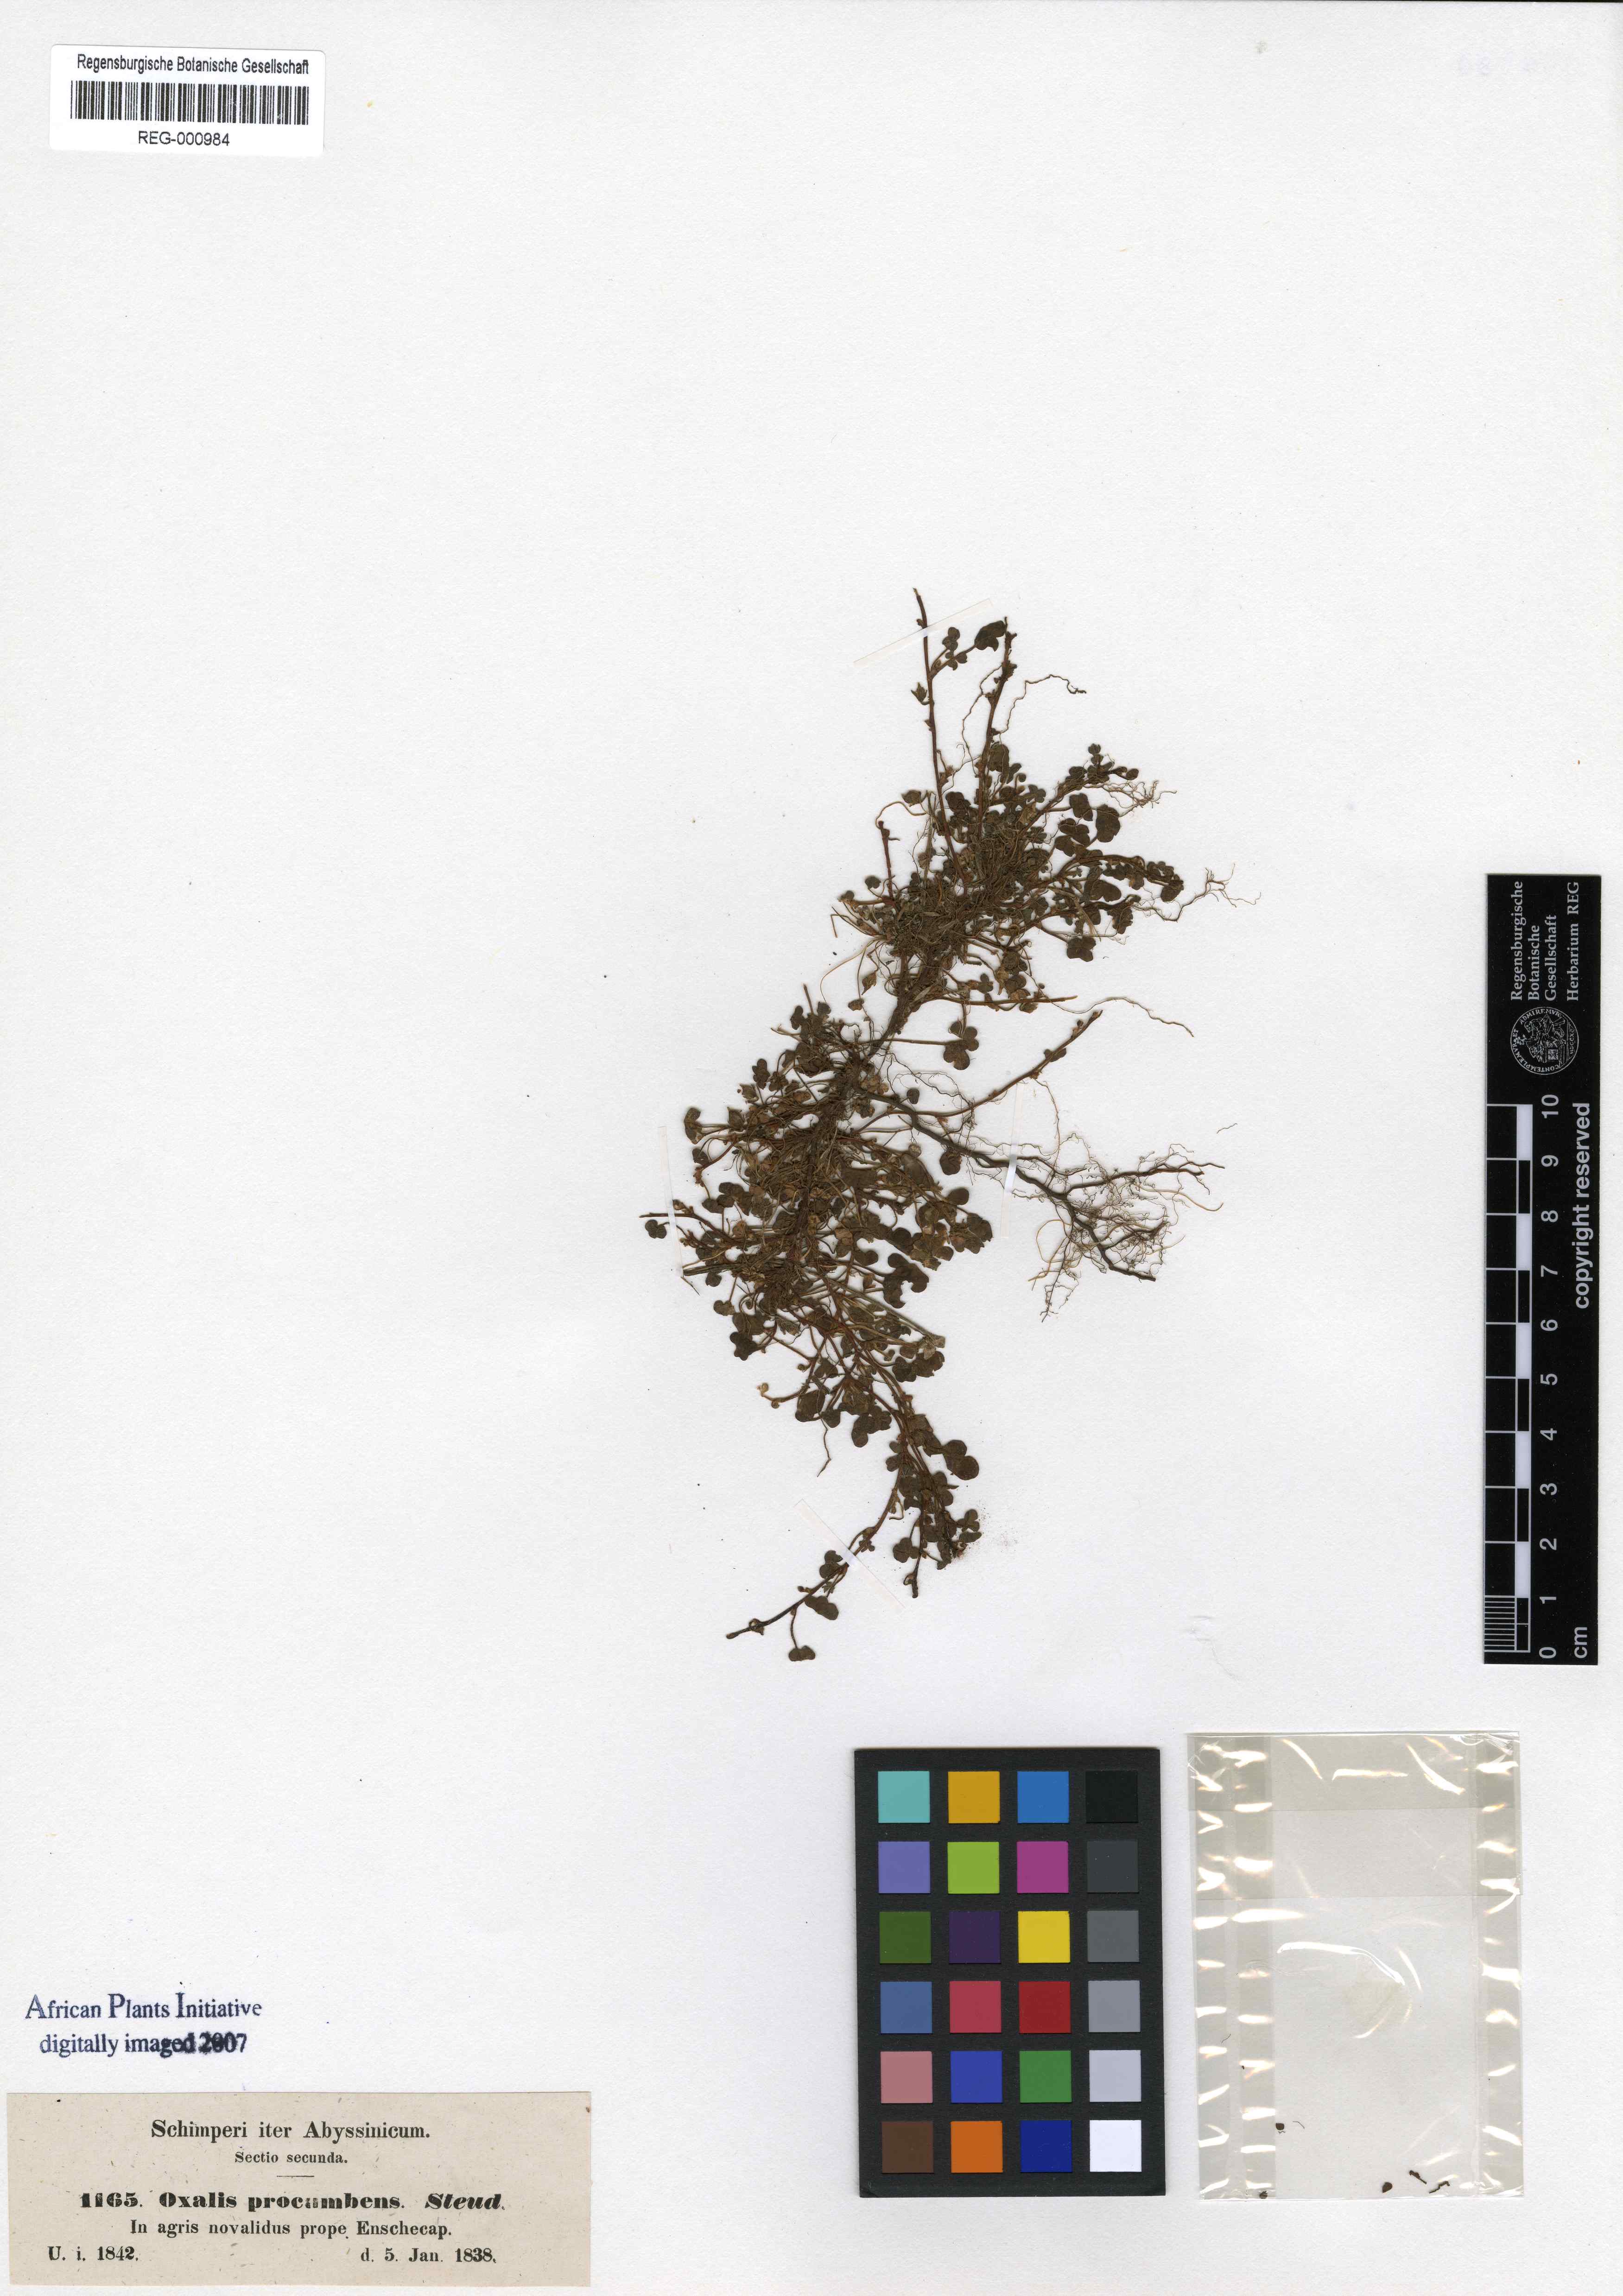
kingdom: Plantae
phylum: Tracheophyta
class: Magnoliopsida
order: Oxalidales
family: Oxalidaceae
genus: Oxalis
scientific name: Oxalis procumbens
